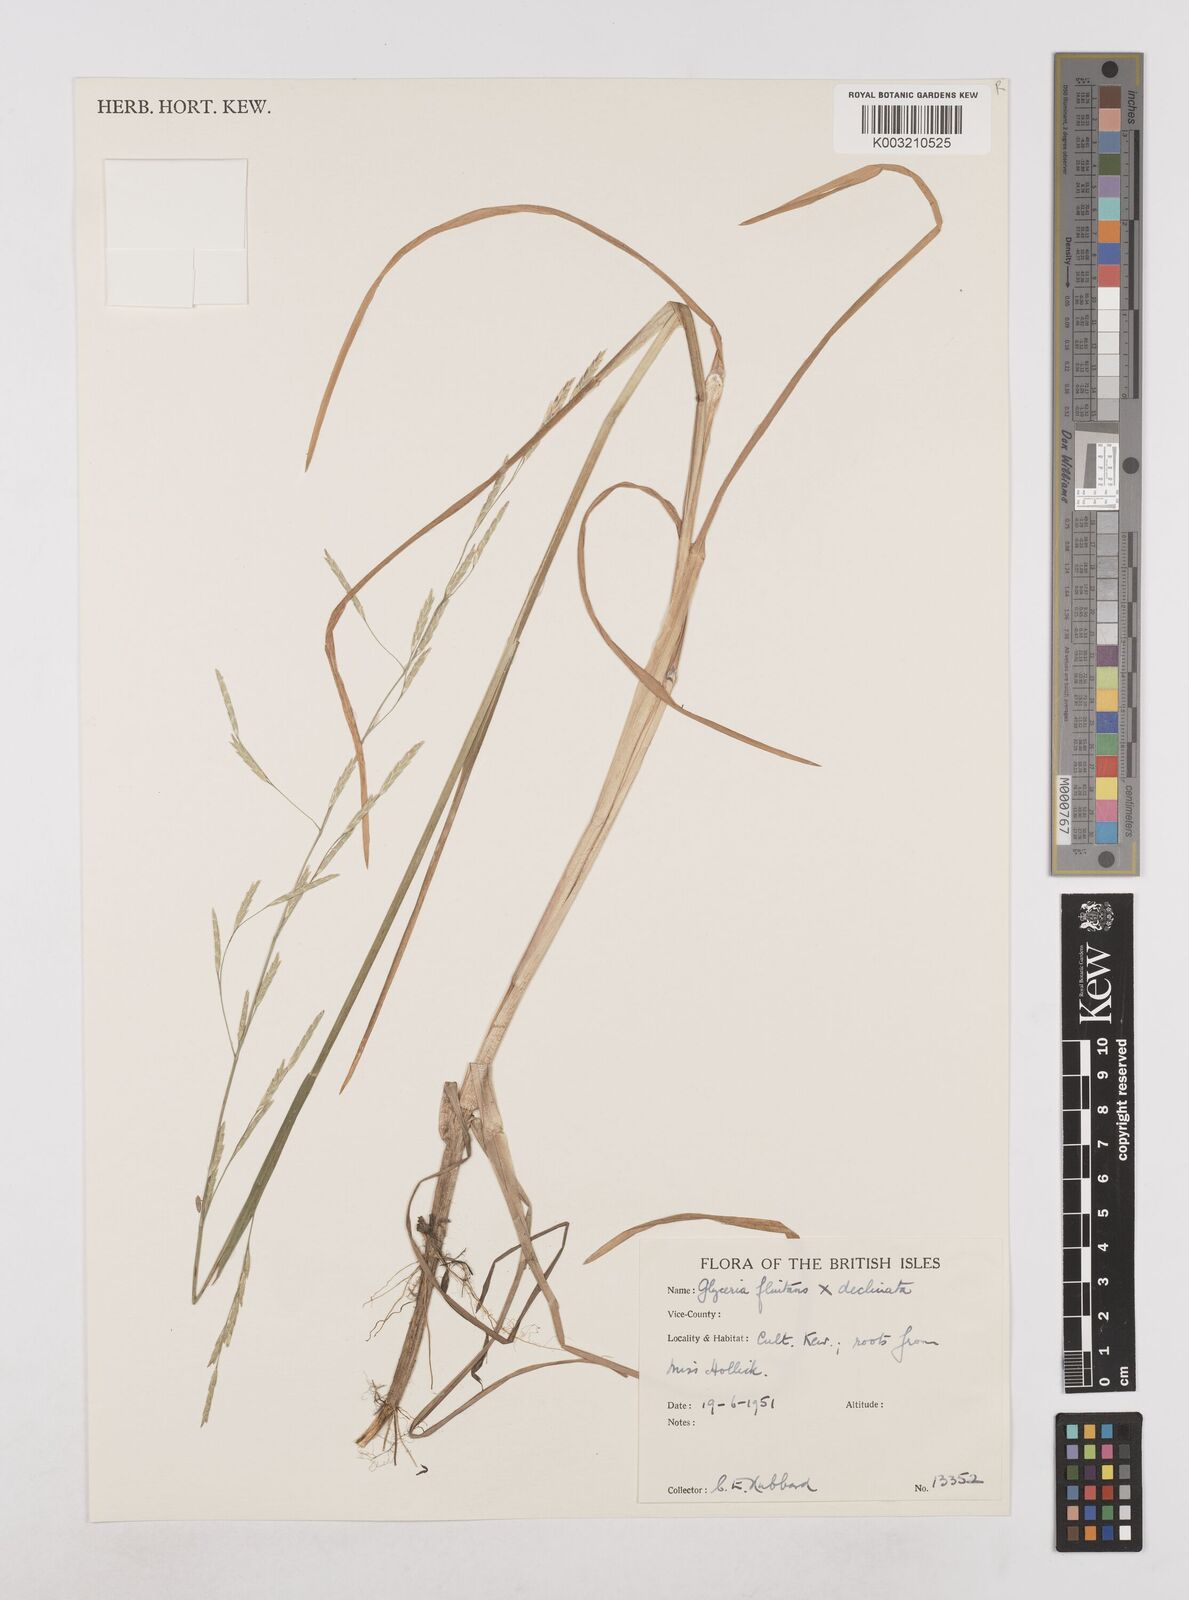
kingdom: Plantae
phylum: Tracheophyta
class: Liliopsida
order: Poales
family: Poaceae
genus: Glyceria
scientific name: Glyceria declinata
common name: Small sweet-grass
